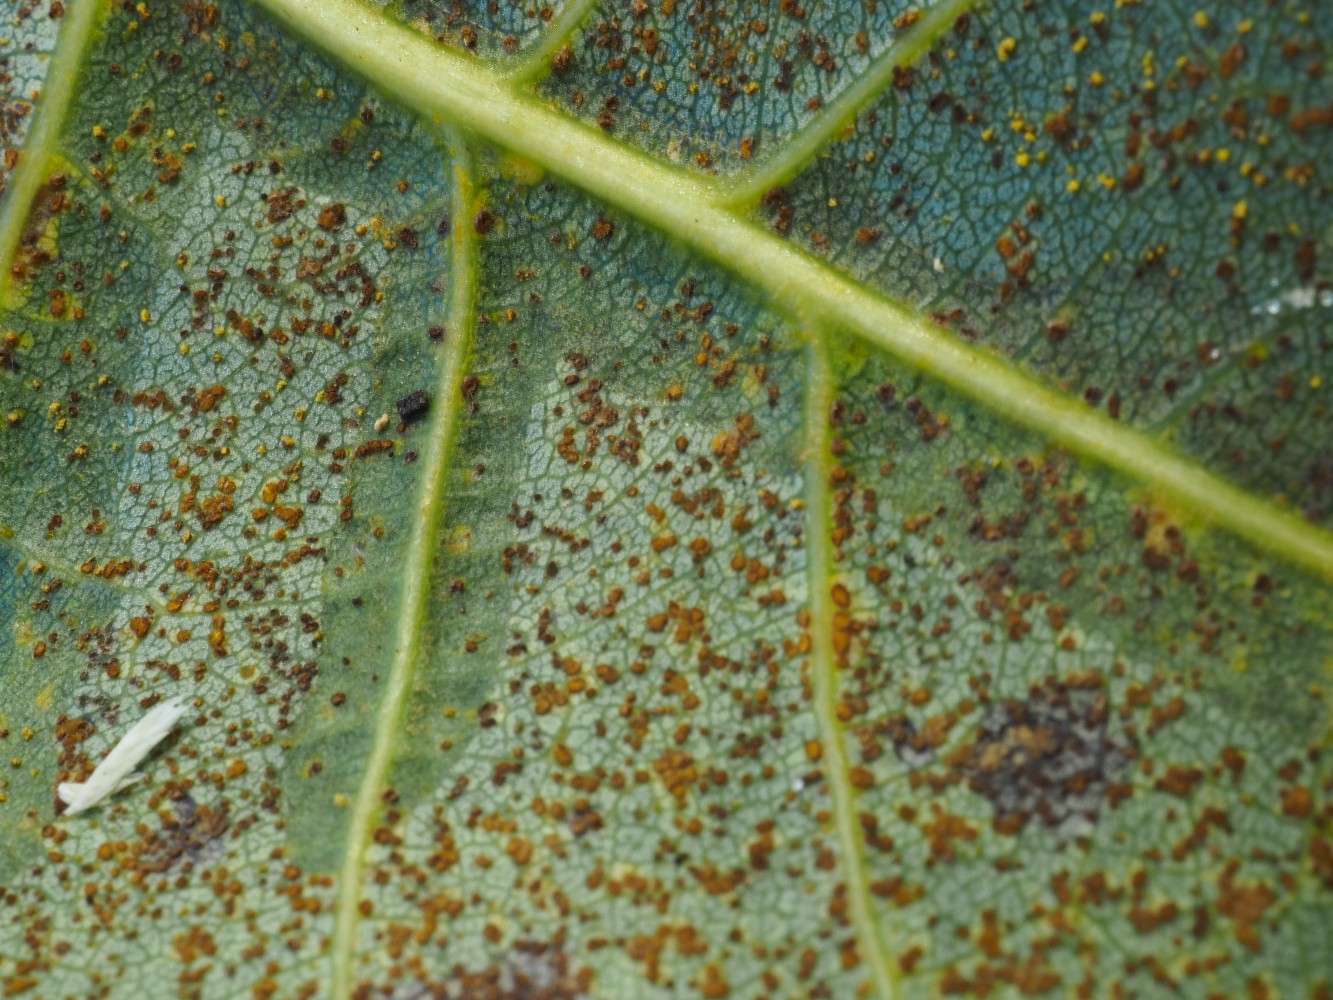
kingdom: Fungi
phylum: Basidiomycota
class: Pucciniomycetes
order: Pucciniales
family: Melampsoraceae
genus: Melampsora
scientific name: Melampsora laricis-populina
